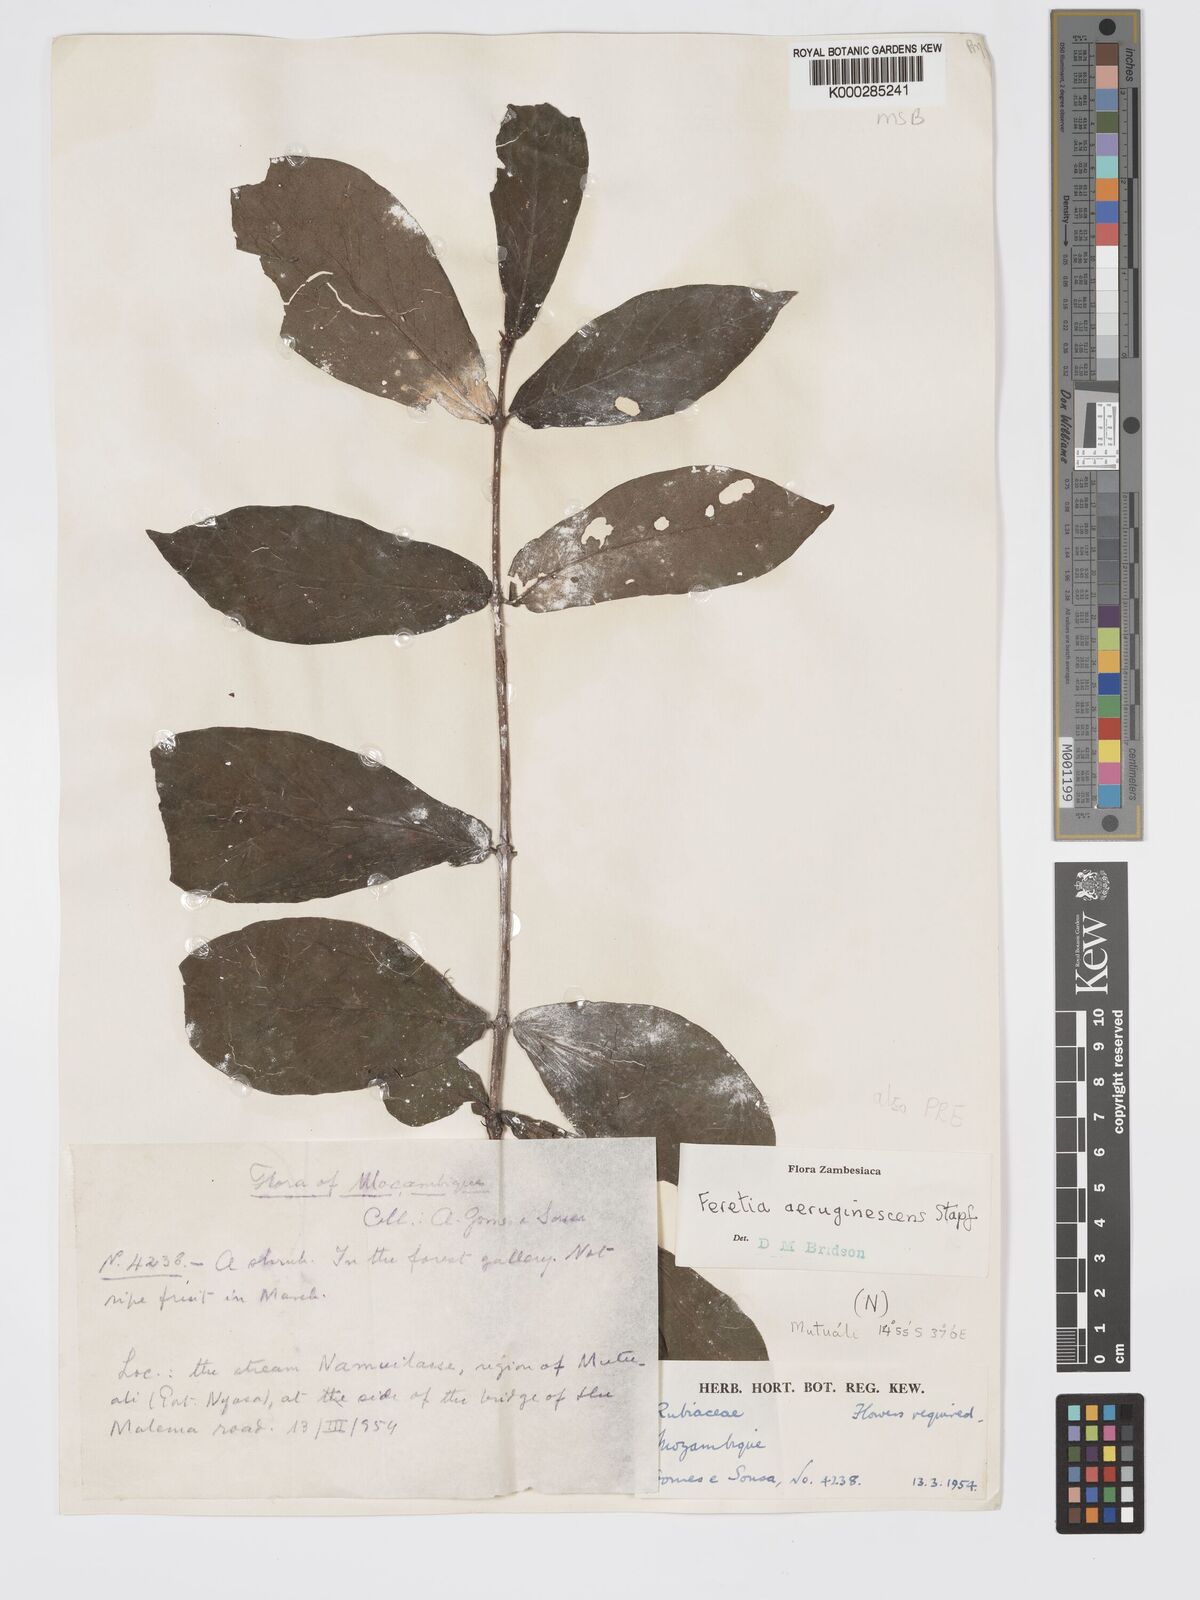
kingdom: Plantae
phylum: Tracheophyta
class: Magnoliopsida
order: Gentianales
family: Rubiaceae
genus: Feretia
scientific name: Feretia aeruginescens
